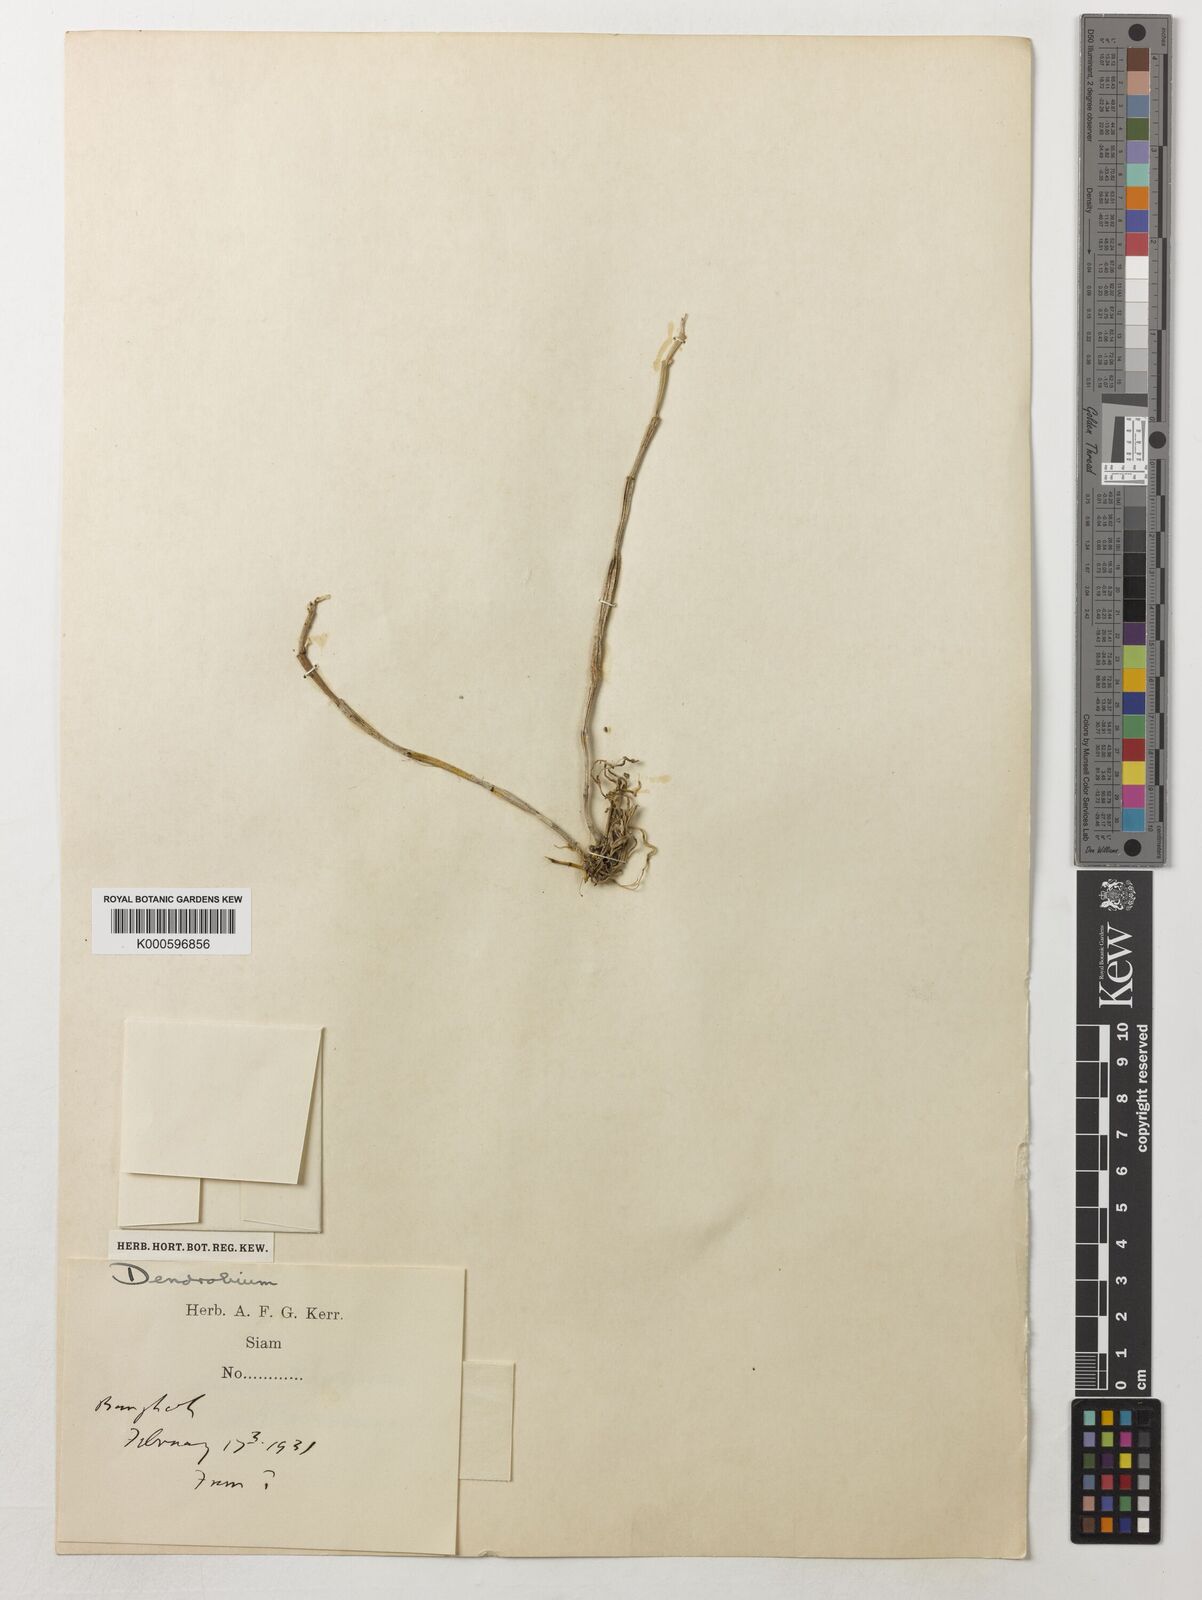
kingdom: Plantae
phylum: Tracheophyta
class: Liliopsida
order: Asparagales
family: Orchidaceae
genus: Dendrobium
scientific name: Dendrobium
